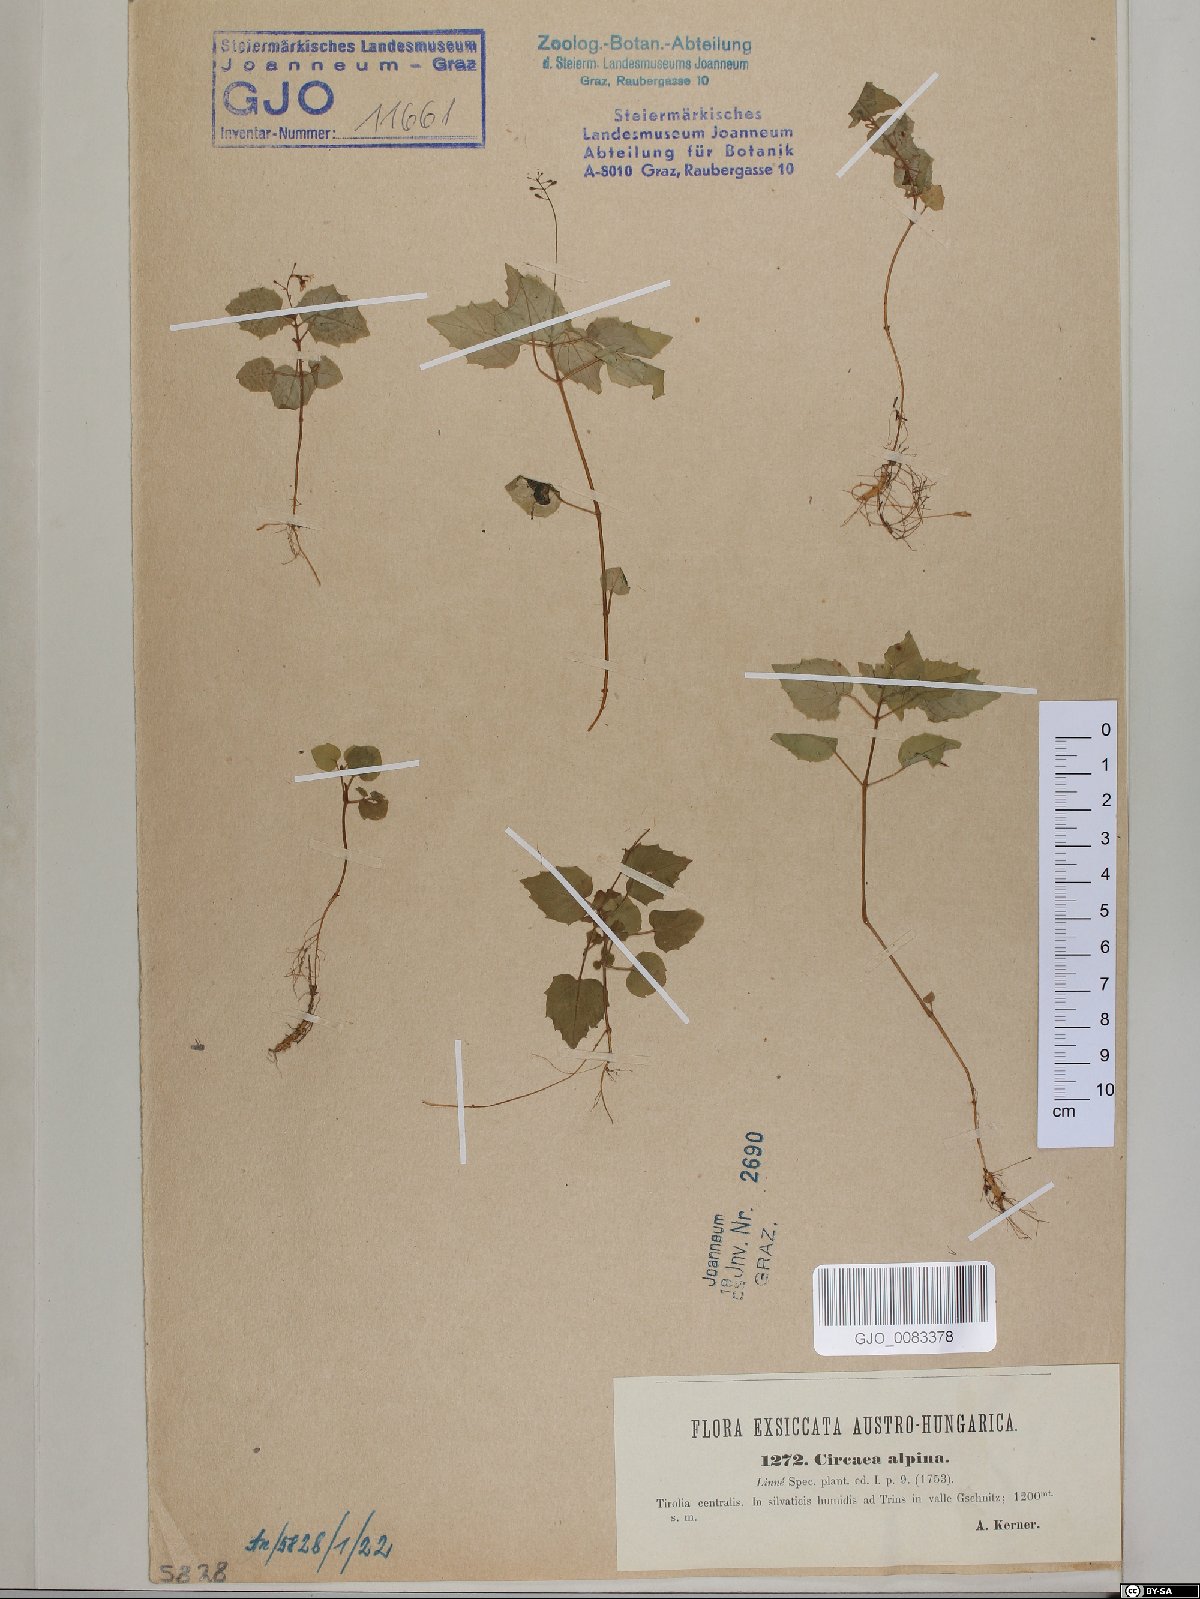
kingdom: Plantae
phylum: Tracheophyta
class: Magnoliopsida
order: Myrtales
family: Onagraceae
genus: Circaea
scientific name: Circaea alpina
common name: Alpine enchanter's-nightshade
